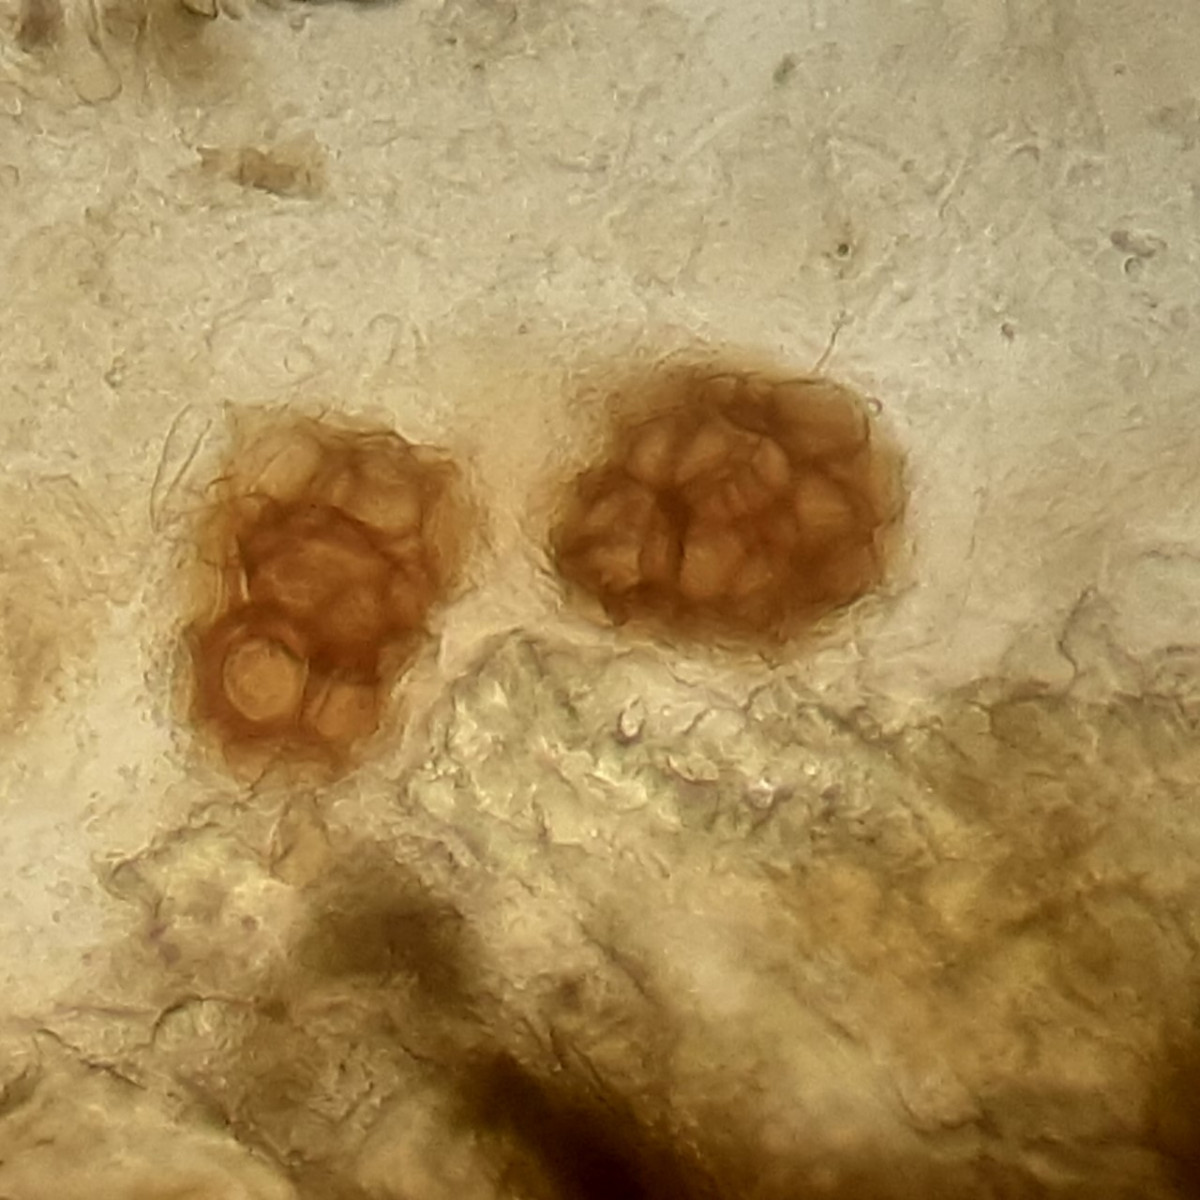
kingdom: Fungi
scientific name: Fungi
